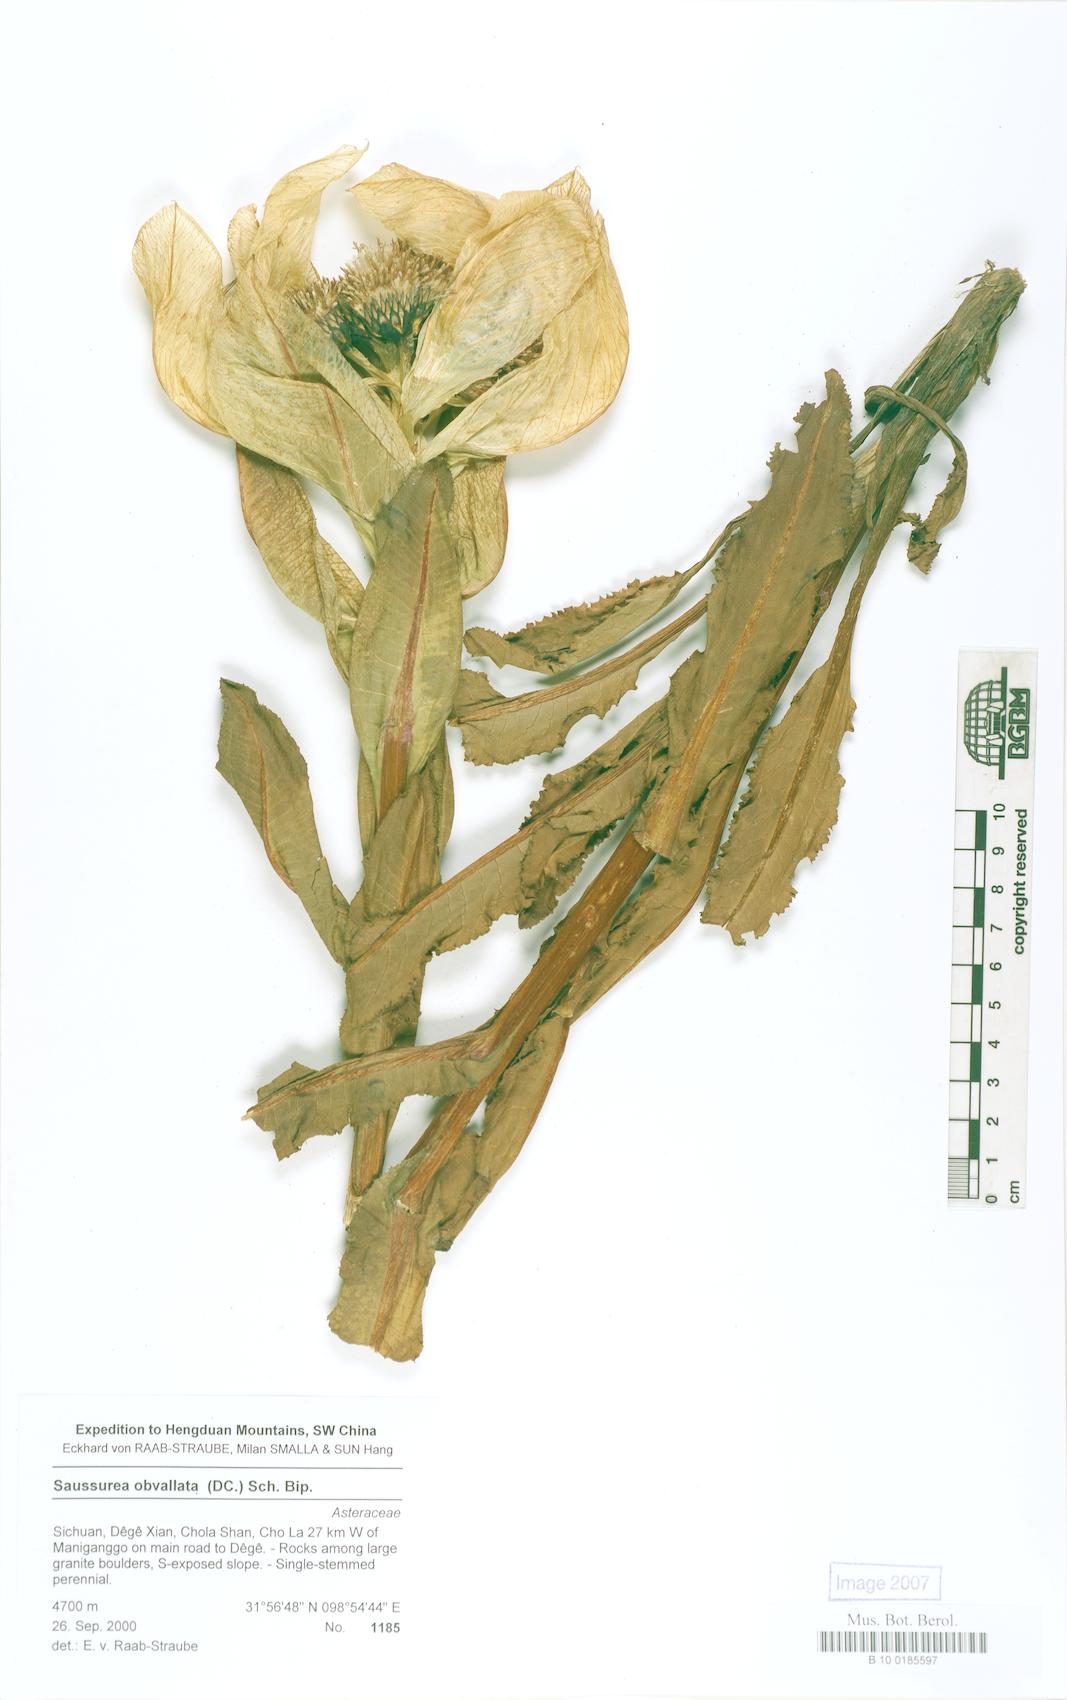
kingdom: Plantae
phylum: Tracheophyta
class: Magnoliopsida
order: Asterales
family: Asteraceae
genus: Saussurea
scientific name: Saussurea septentrionalis
